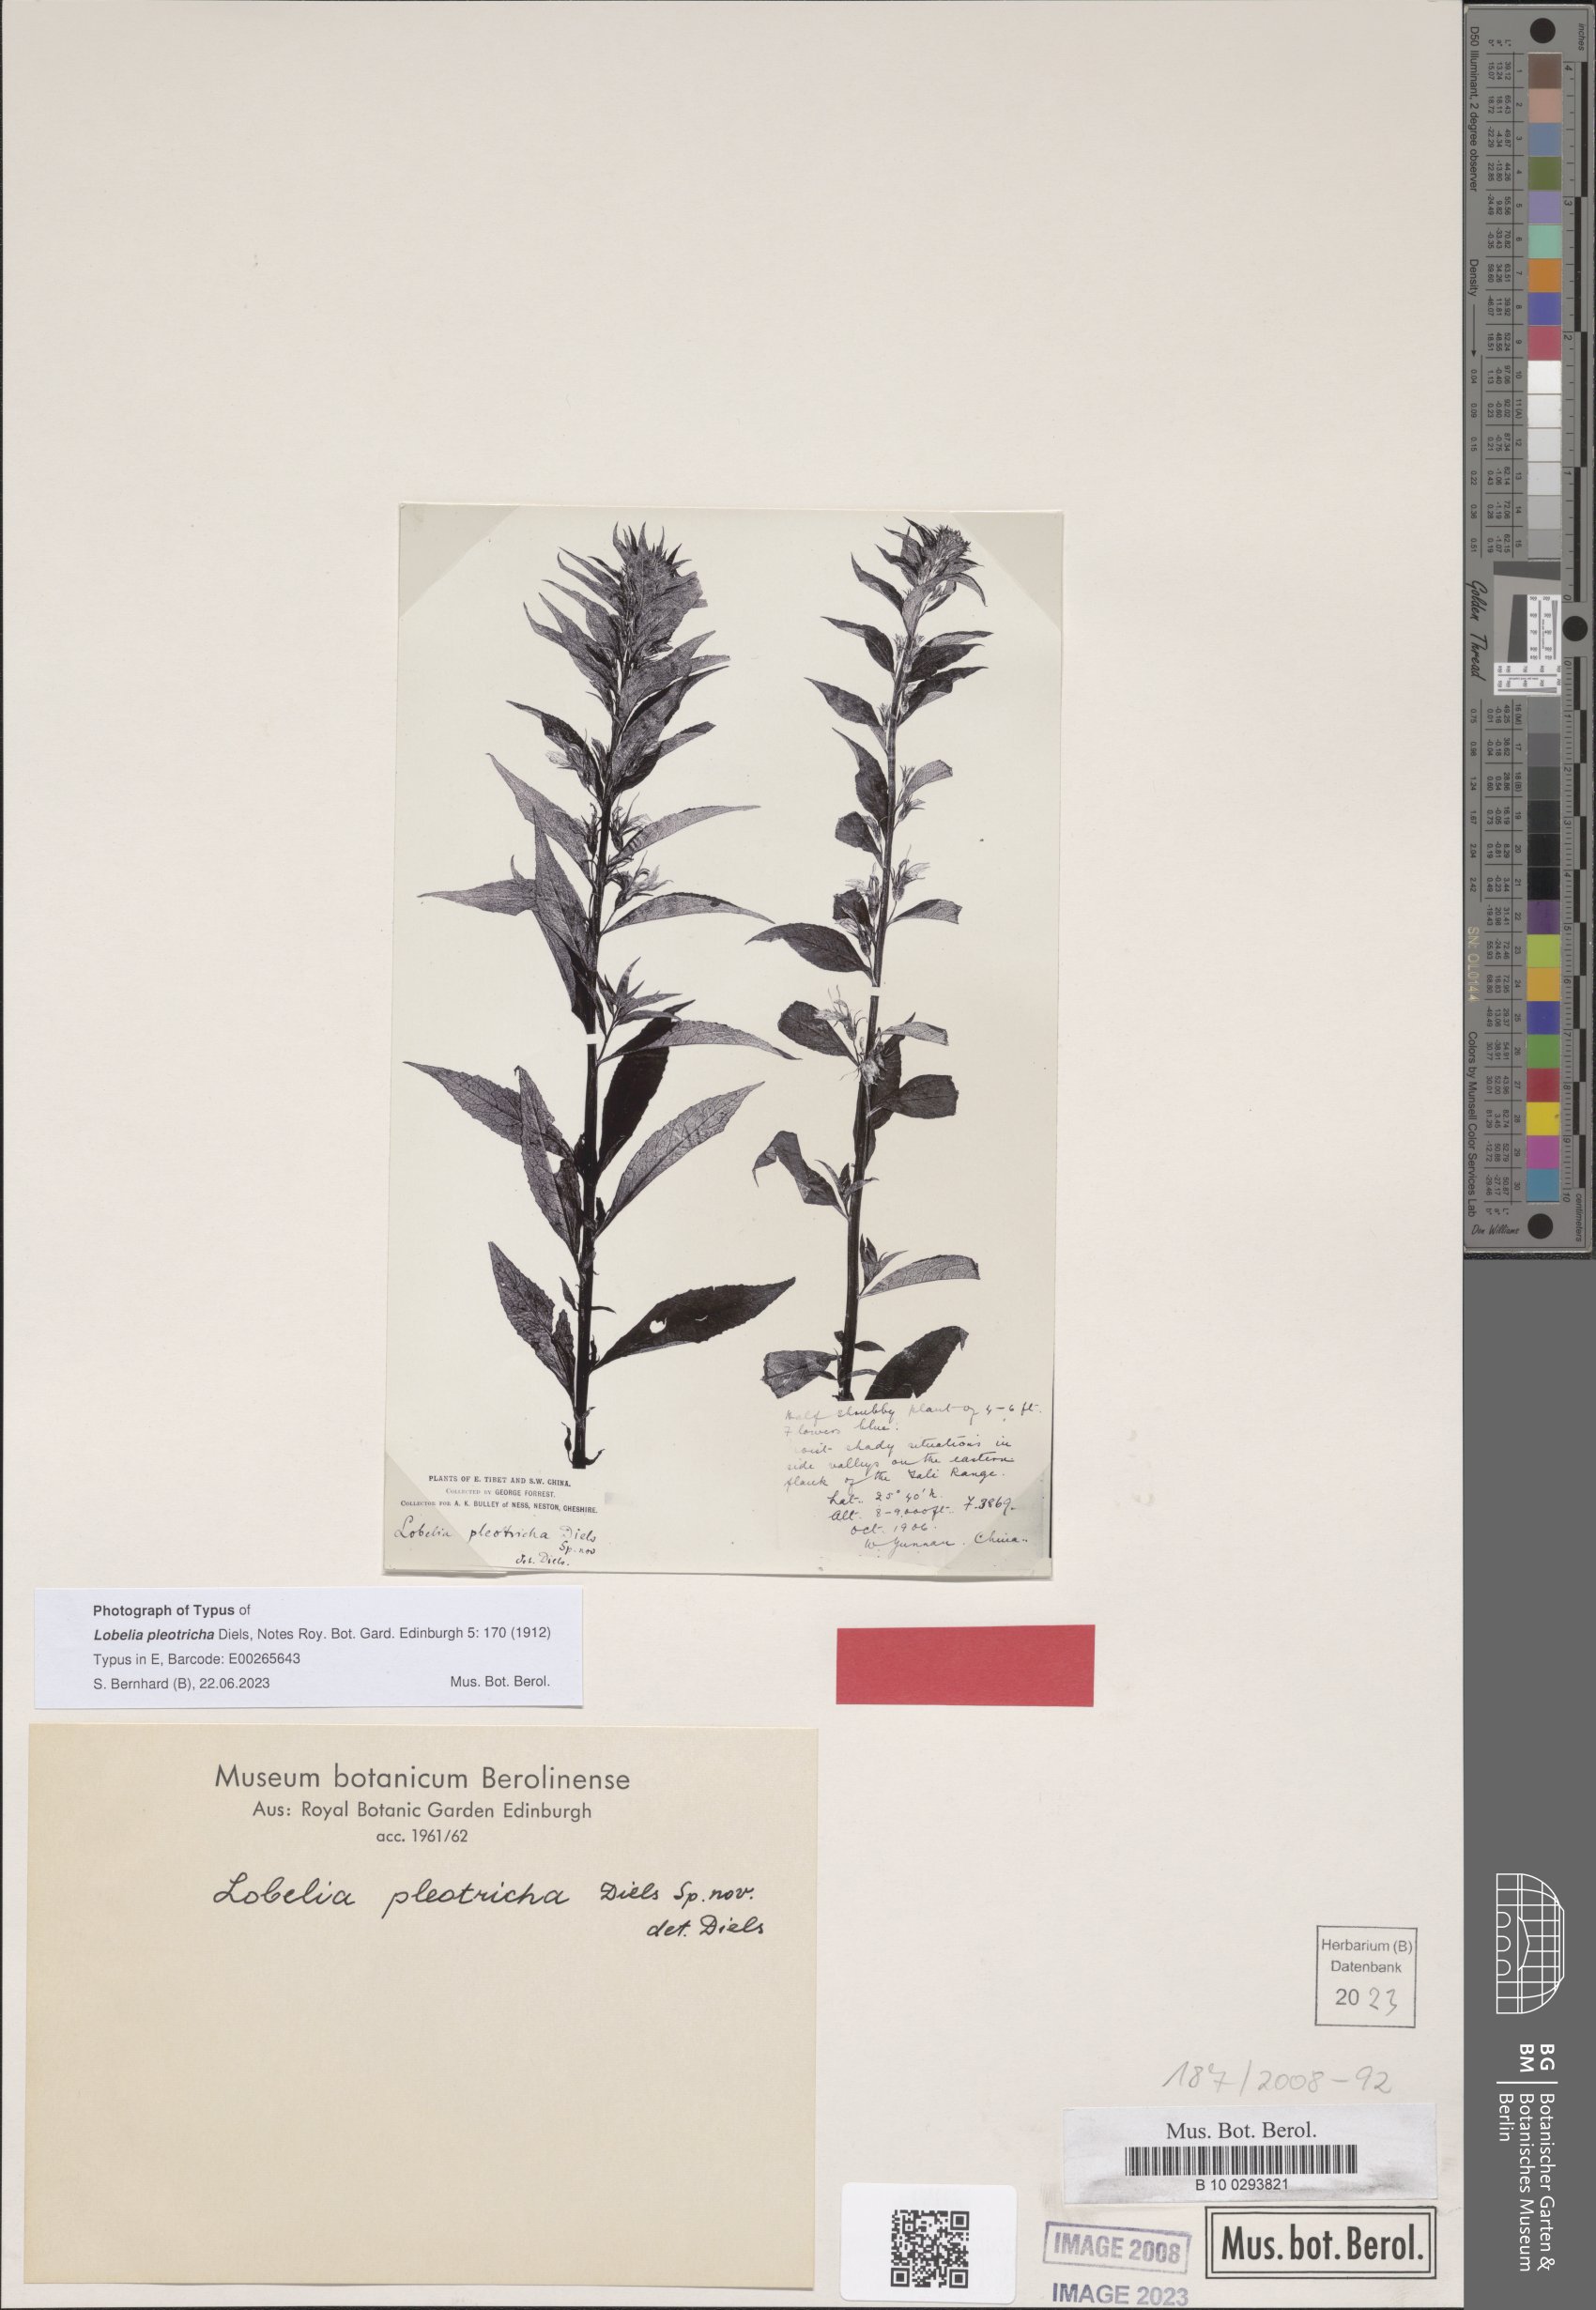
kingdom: Plantae
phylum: Tracheophyta
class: Magnoliopsida
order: Asterales
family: Campanulaceae
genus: Lobelia
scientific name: Lobelia pleotricha
